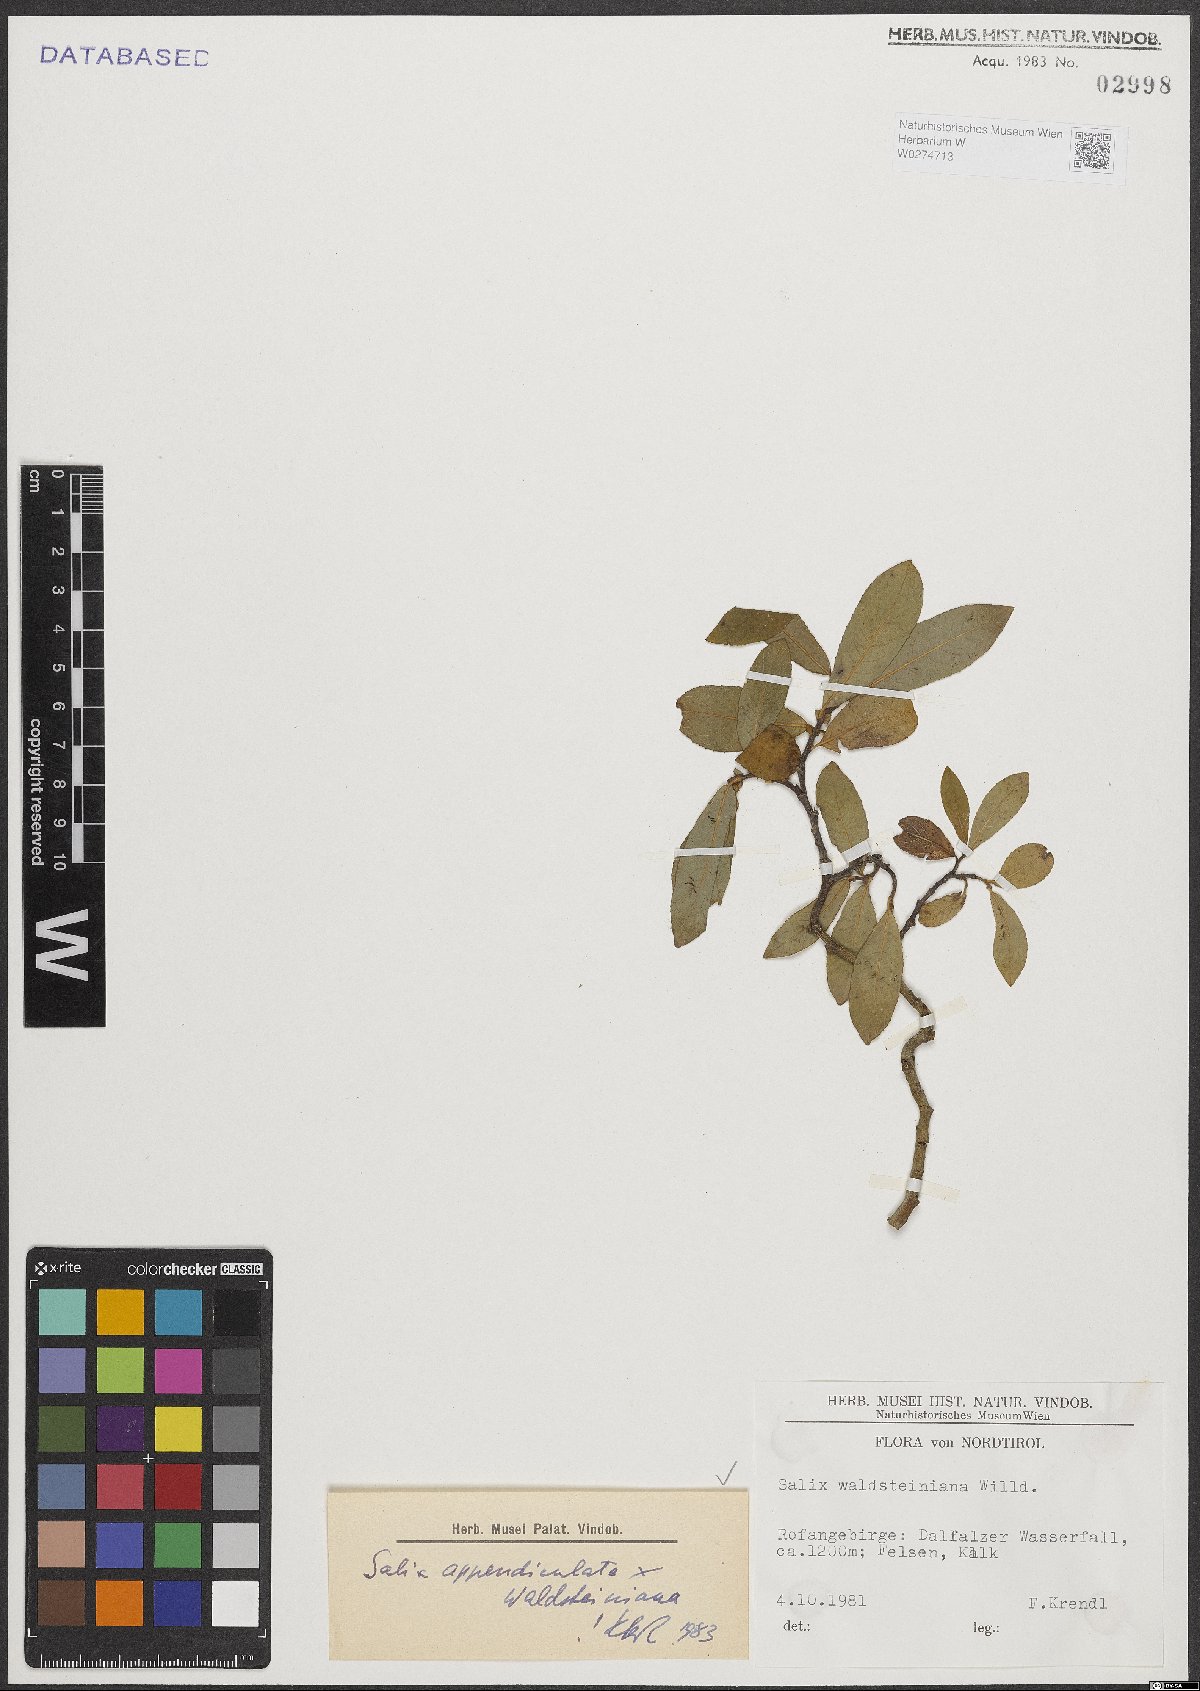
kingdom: Plantae
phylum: Tracheophyta
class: Magnoliopsida
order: Malpighiales
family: Salicaceae
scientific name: Salicaceae
